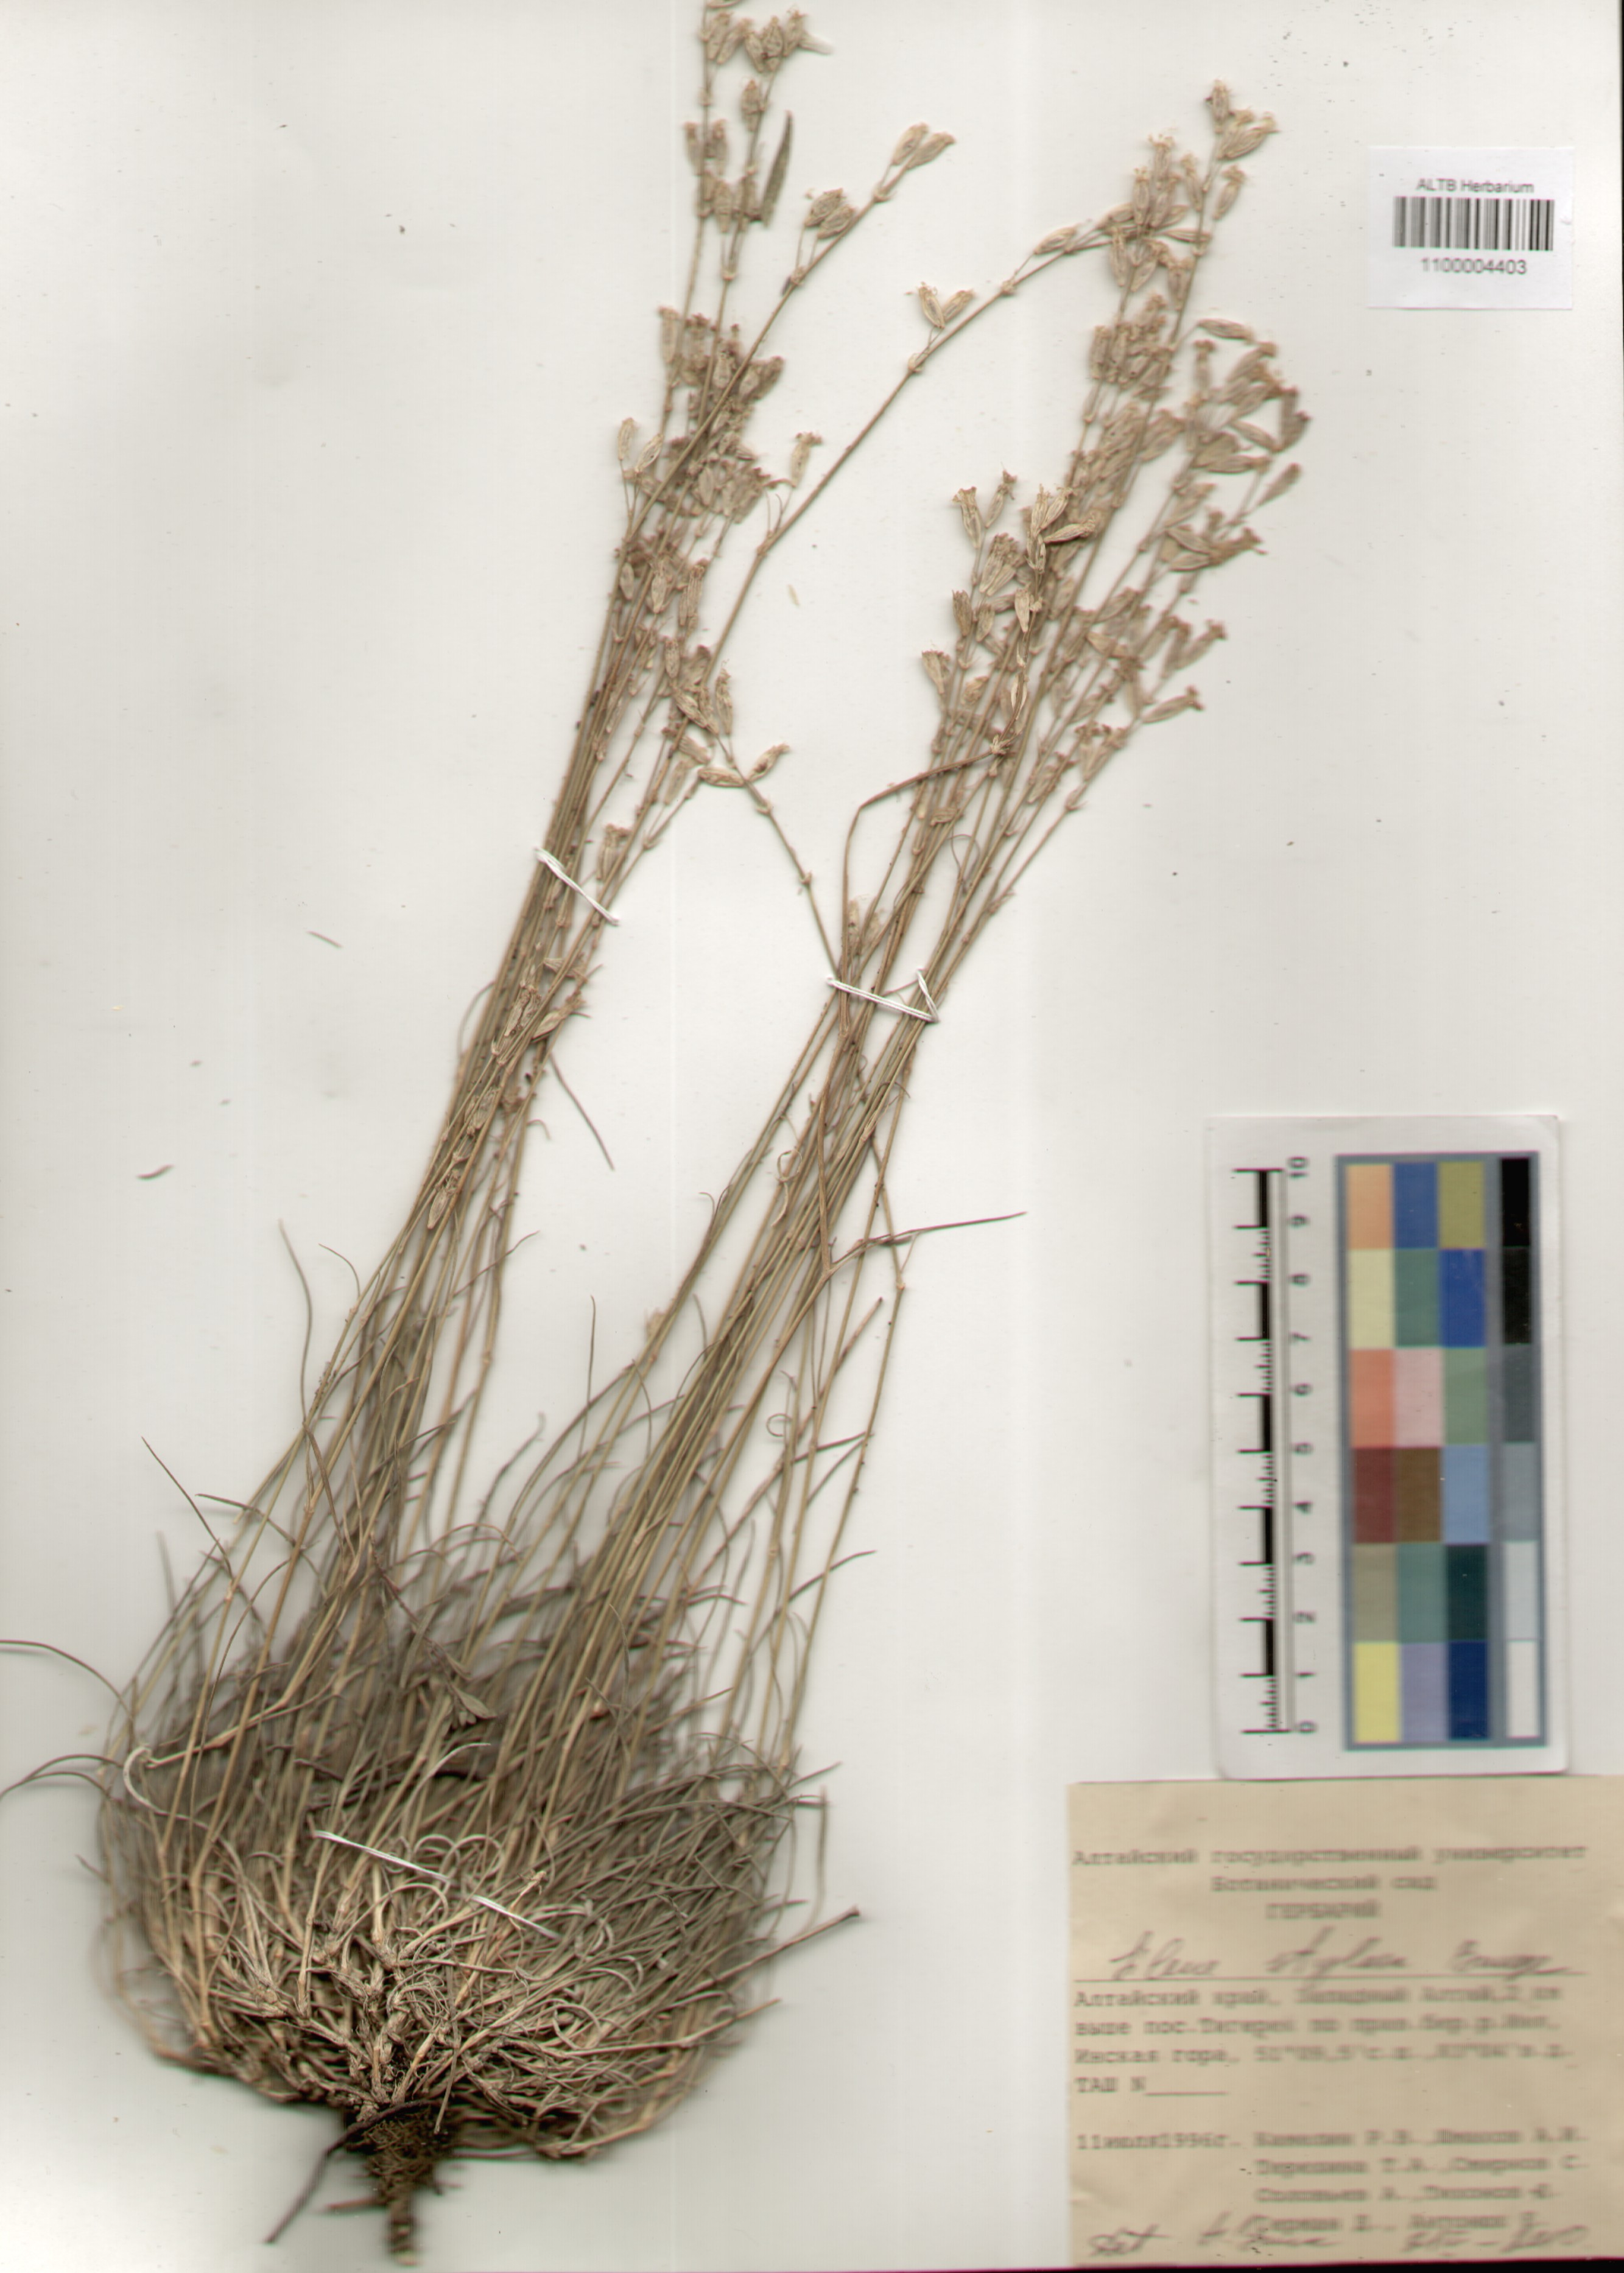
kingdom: Plantae
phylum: Tracheophyta
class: Magnoliopsida
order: Caryophyllales
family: Caryophyllaceae
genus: Silene
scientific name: Silene graminifolia
